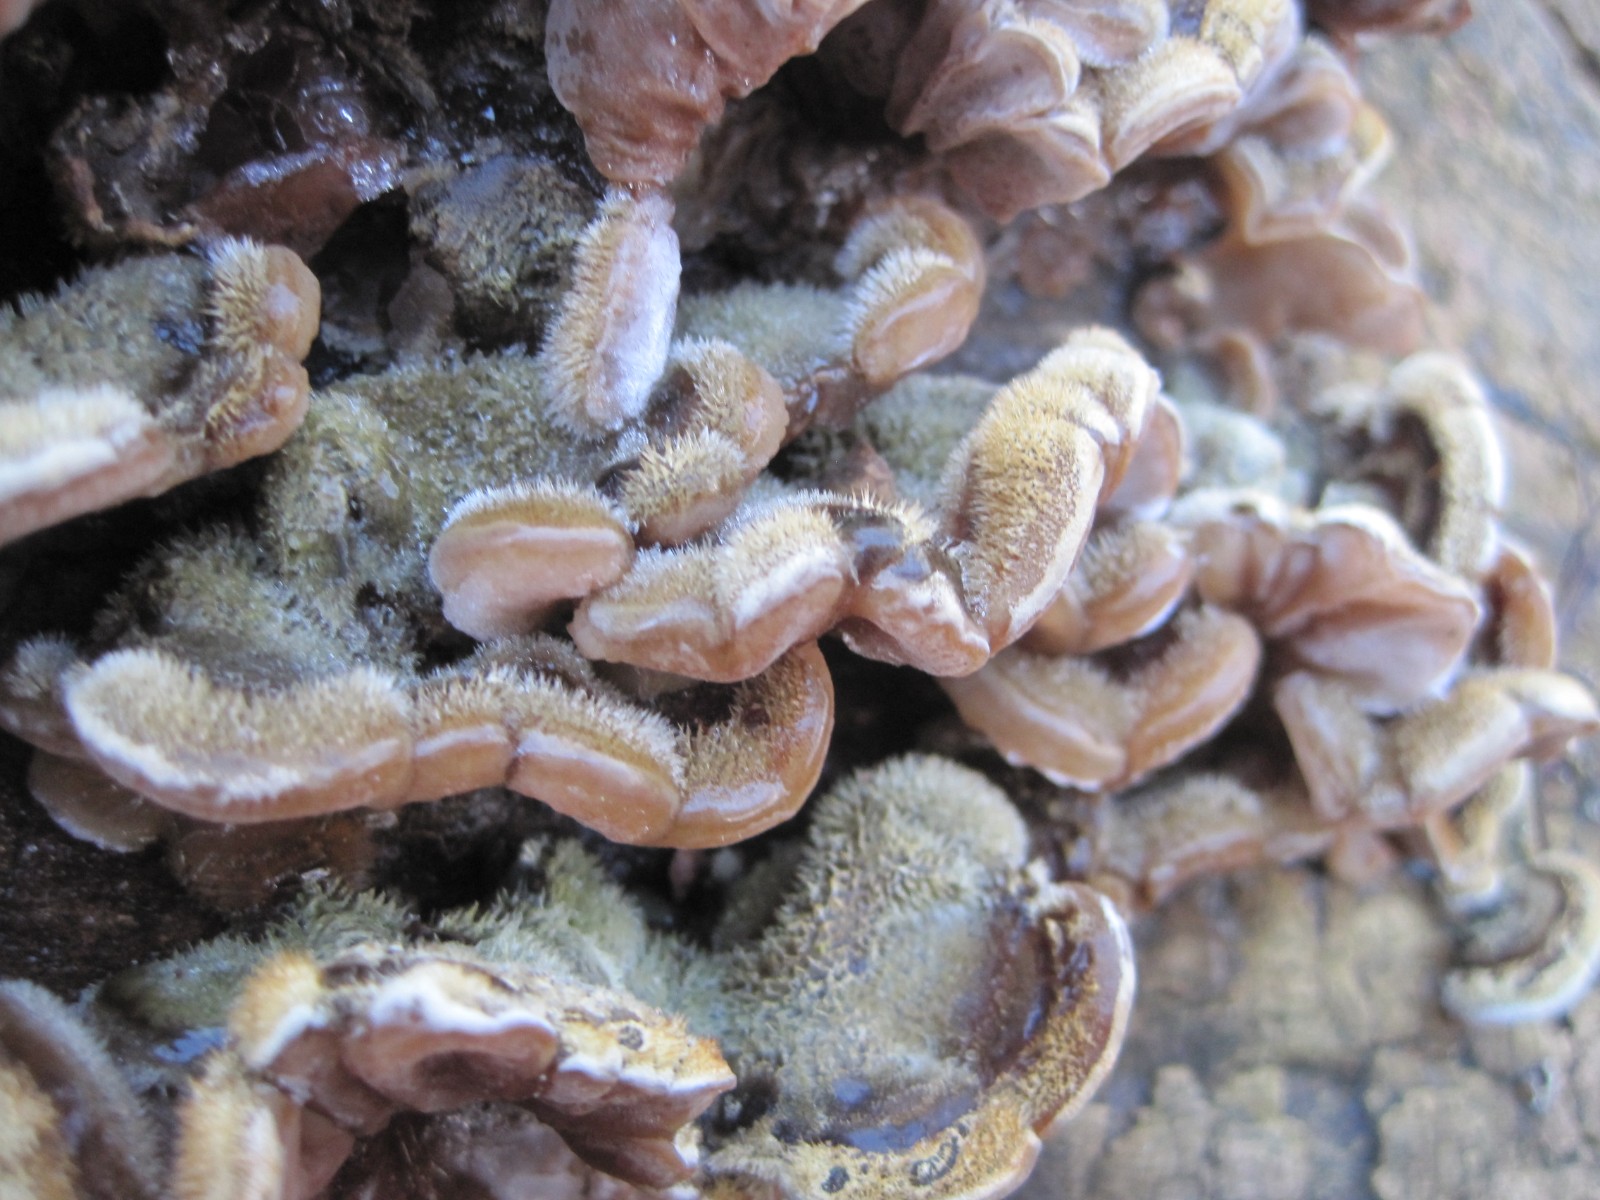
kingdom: Fungi
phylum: Basidiomycota
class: Agaricomycetes
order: Auriculariales
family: Auriculariaceae
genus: Auricularia
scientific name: Auricularia mesenterica
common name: håret judasøre
